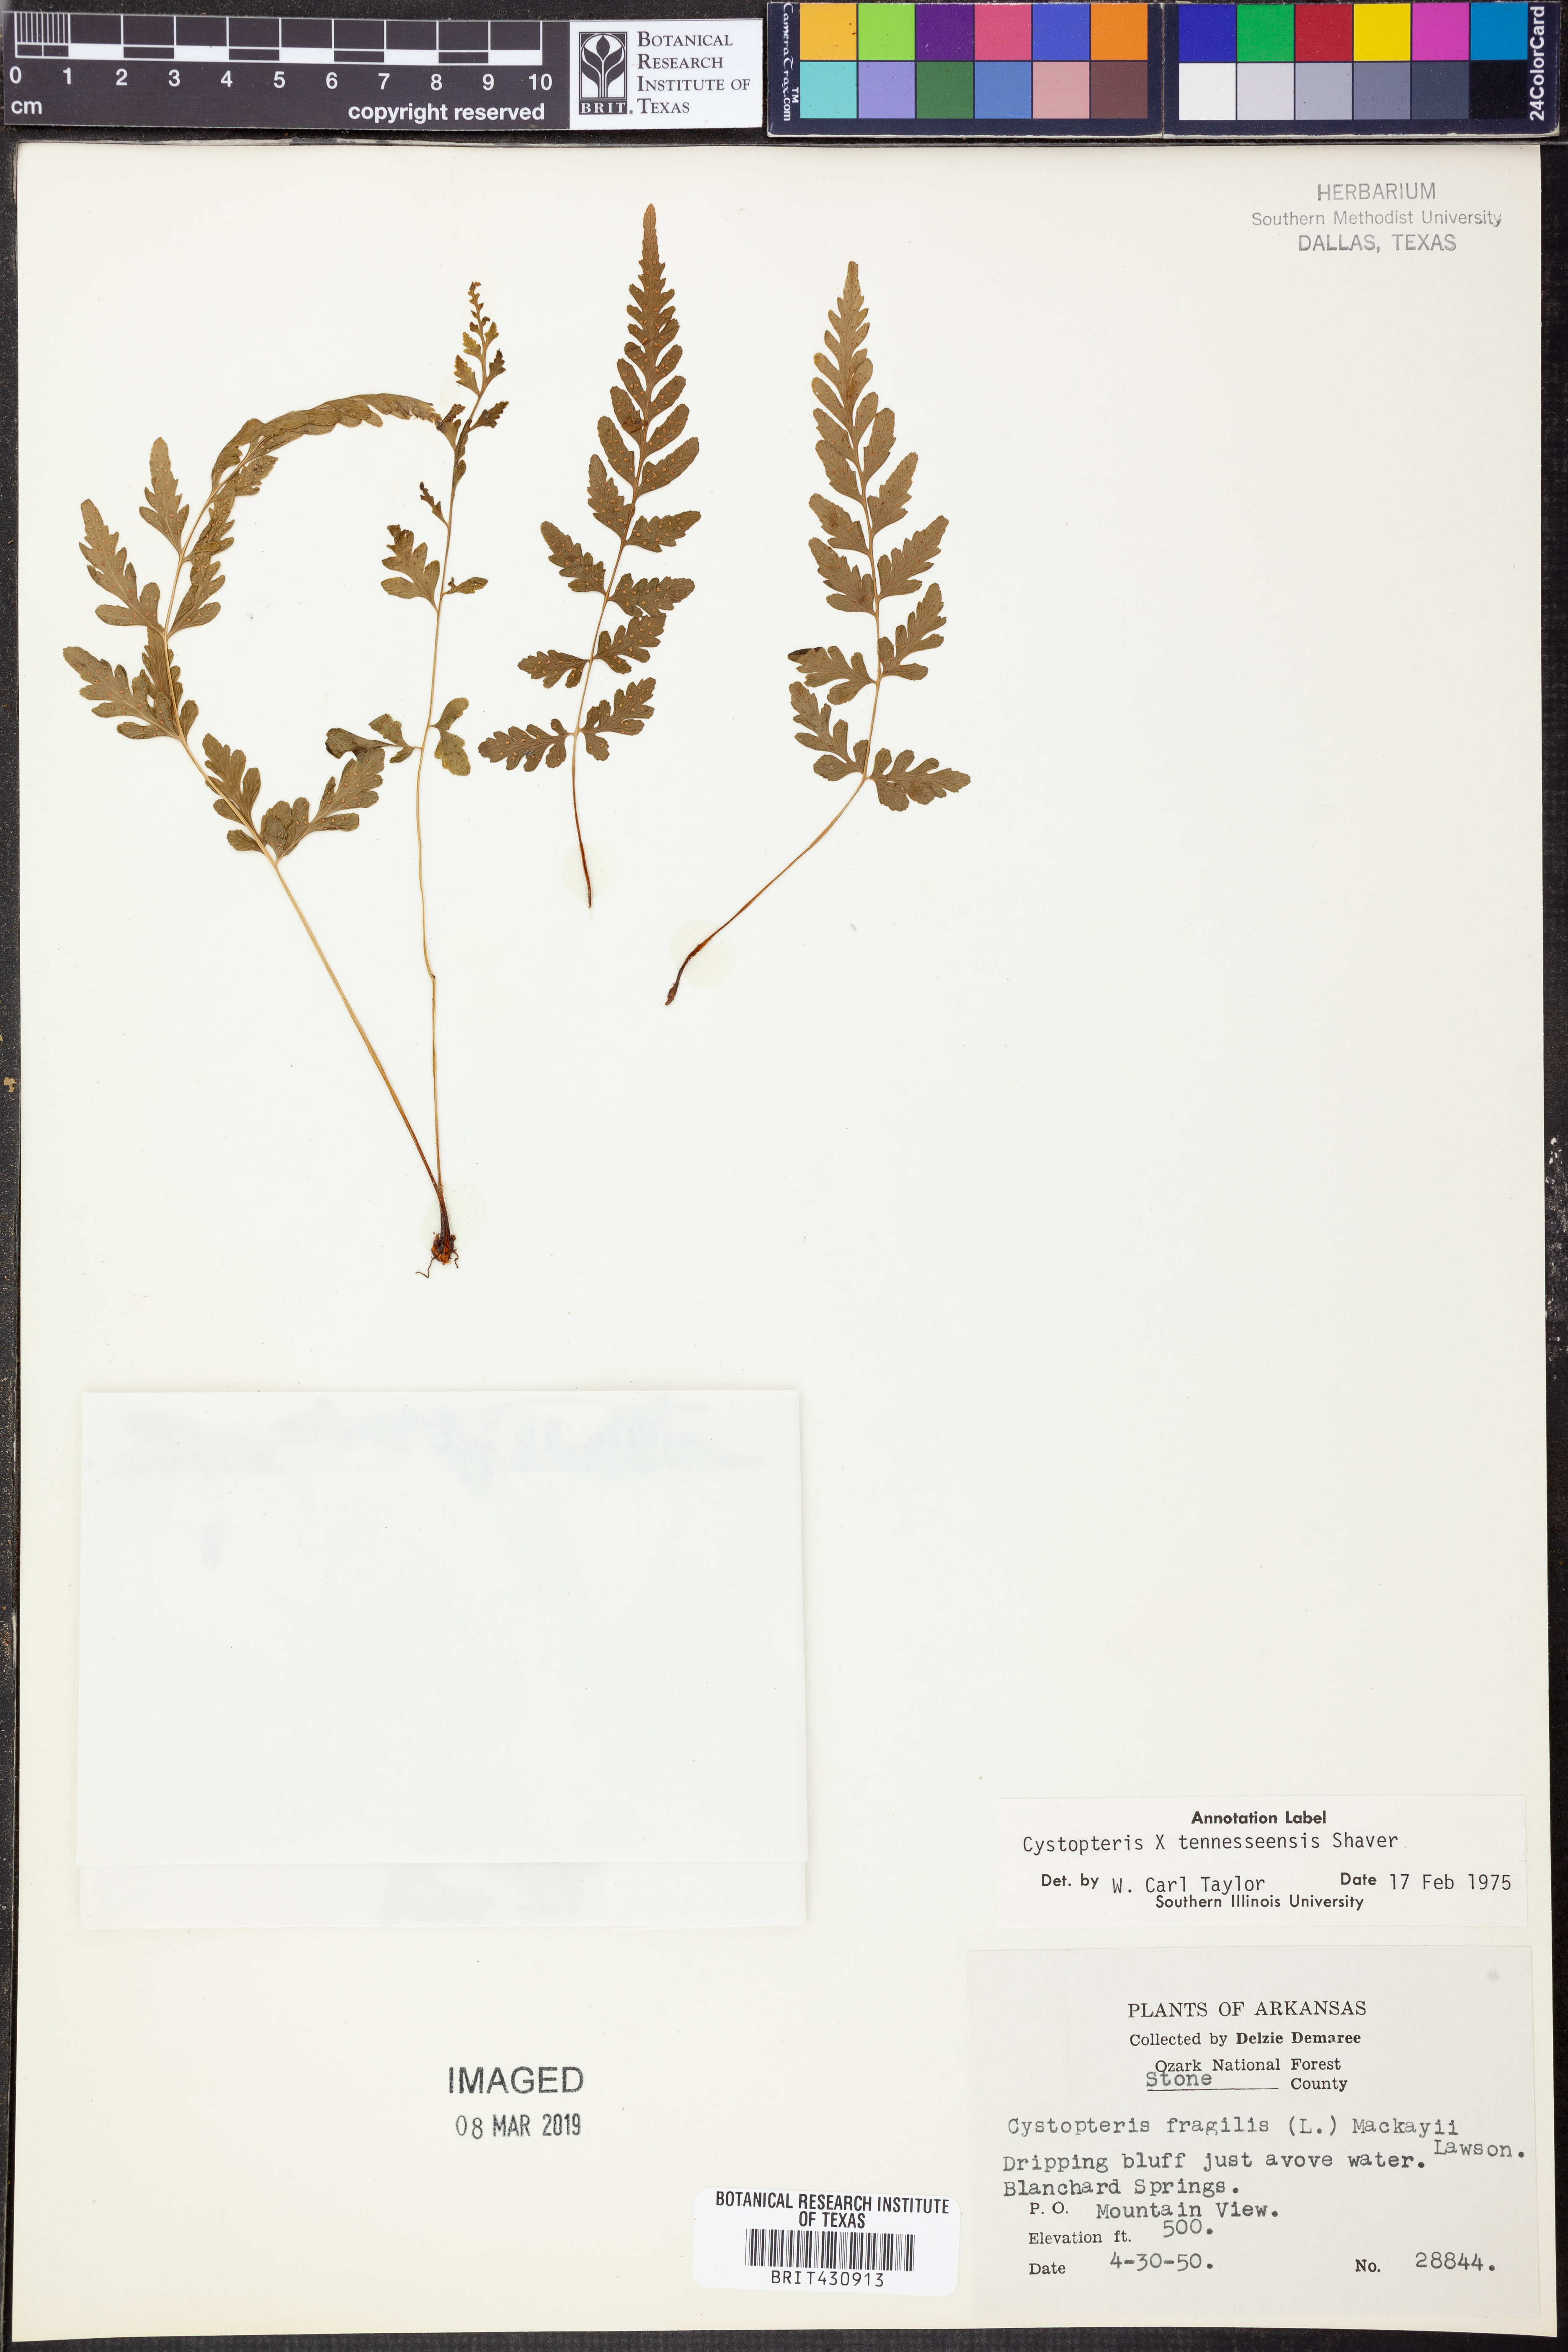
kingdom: Plantae
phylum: Tracheophyta
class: Polypodiopsida
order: Polypodiales
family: Cystopteridaceae
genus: Cystopteris
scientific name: Cystopteris tennesseensis
